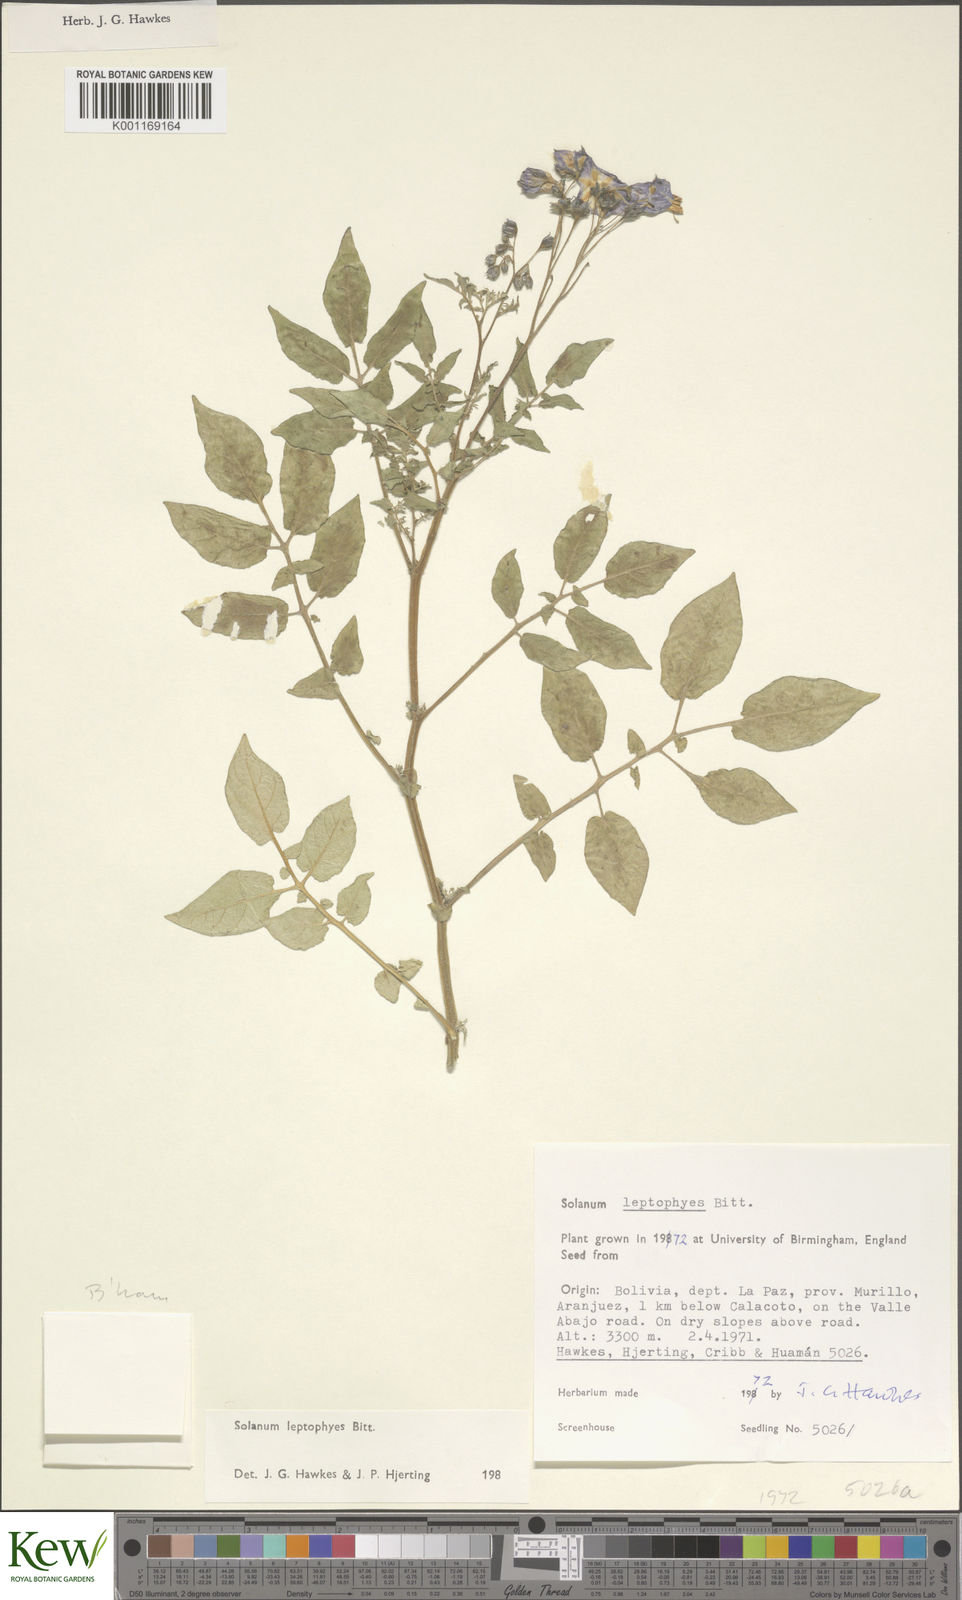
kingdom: Plantae
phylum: Tracheophyta
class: Magnoliopsida
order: Solanales
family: Solanaceae
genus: Solanum
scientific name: Solanum brevicaule
